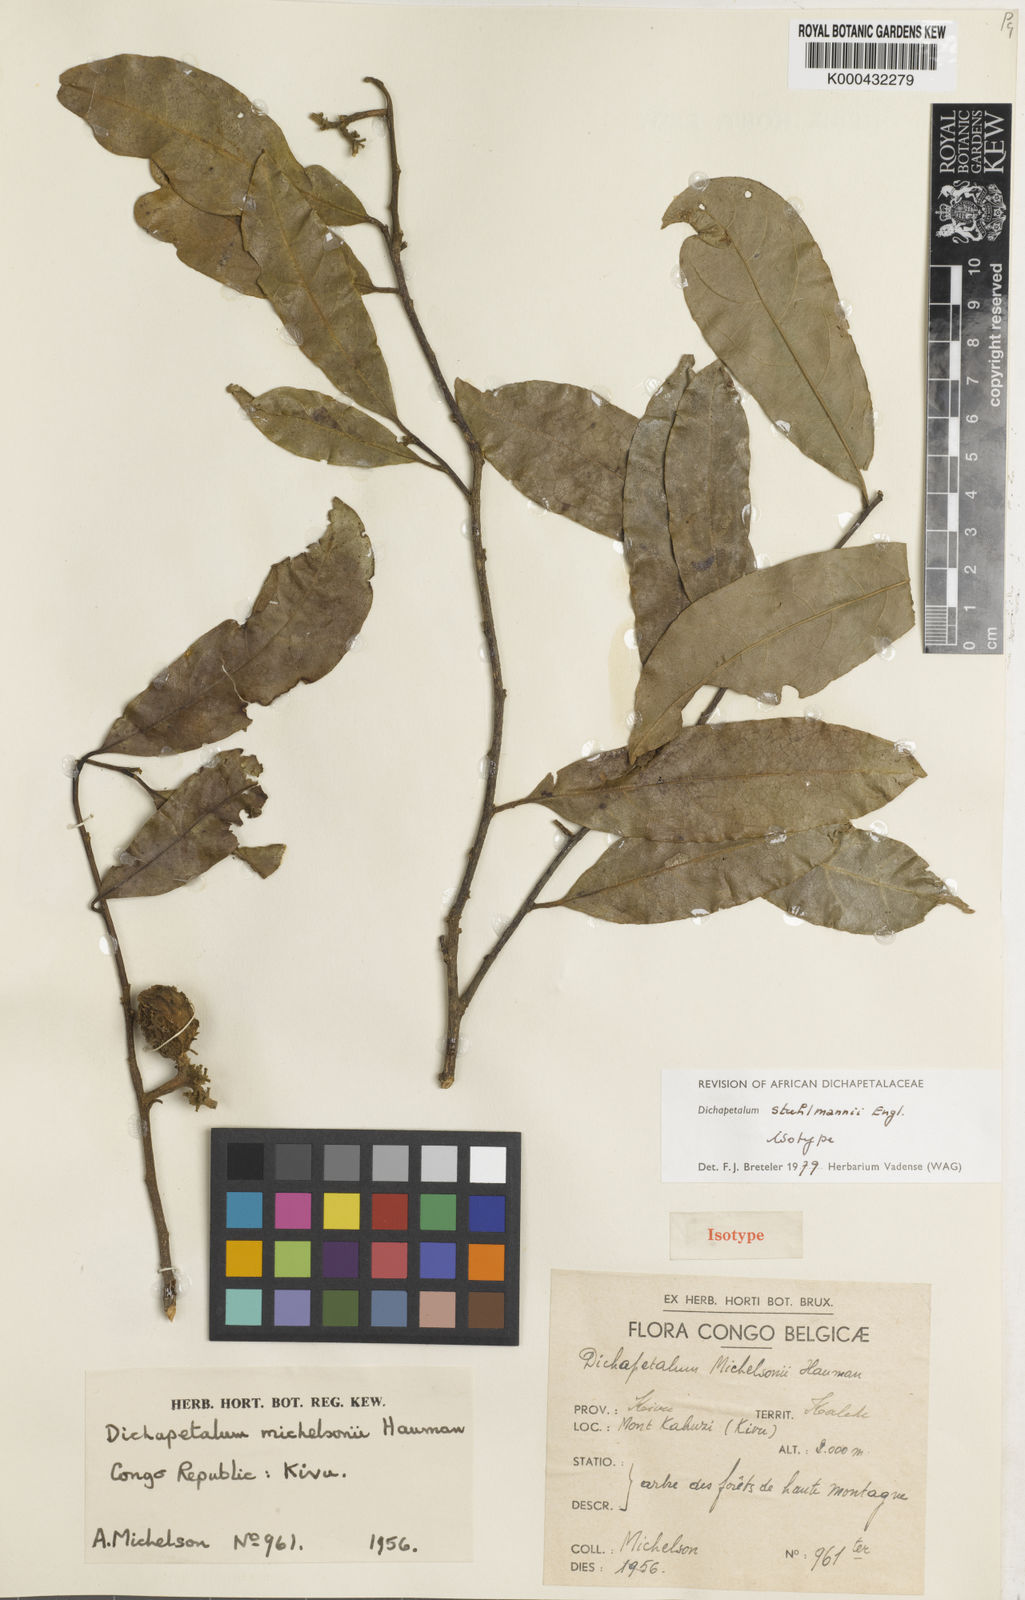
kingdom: Plantae
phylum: Tracheophyta
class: Magnoliopsida
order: Malpighiales
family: Dichapetalaceae
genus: Dichapetalum
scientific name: Dichapetalum stuhlmannii
